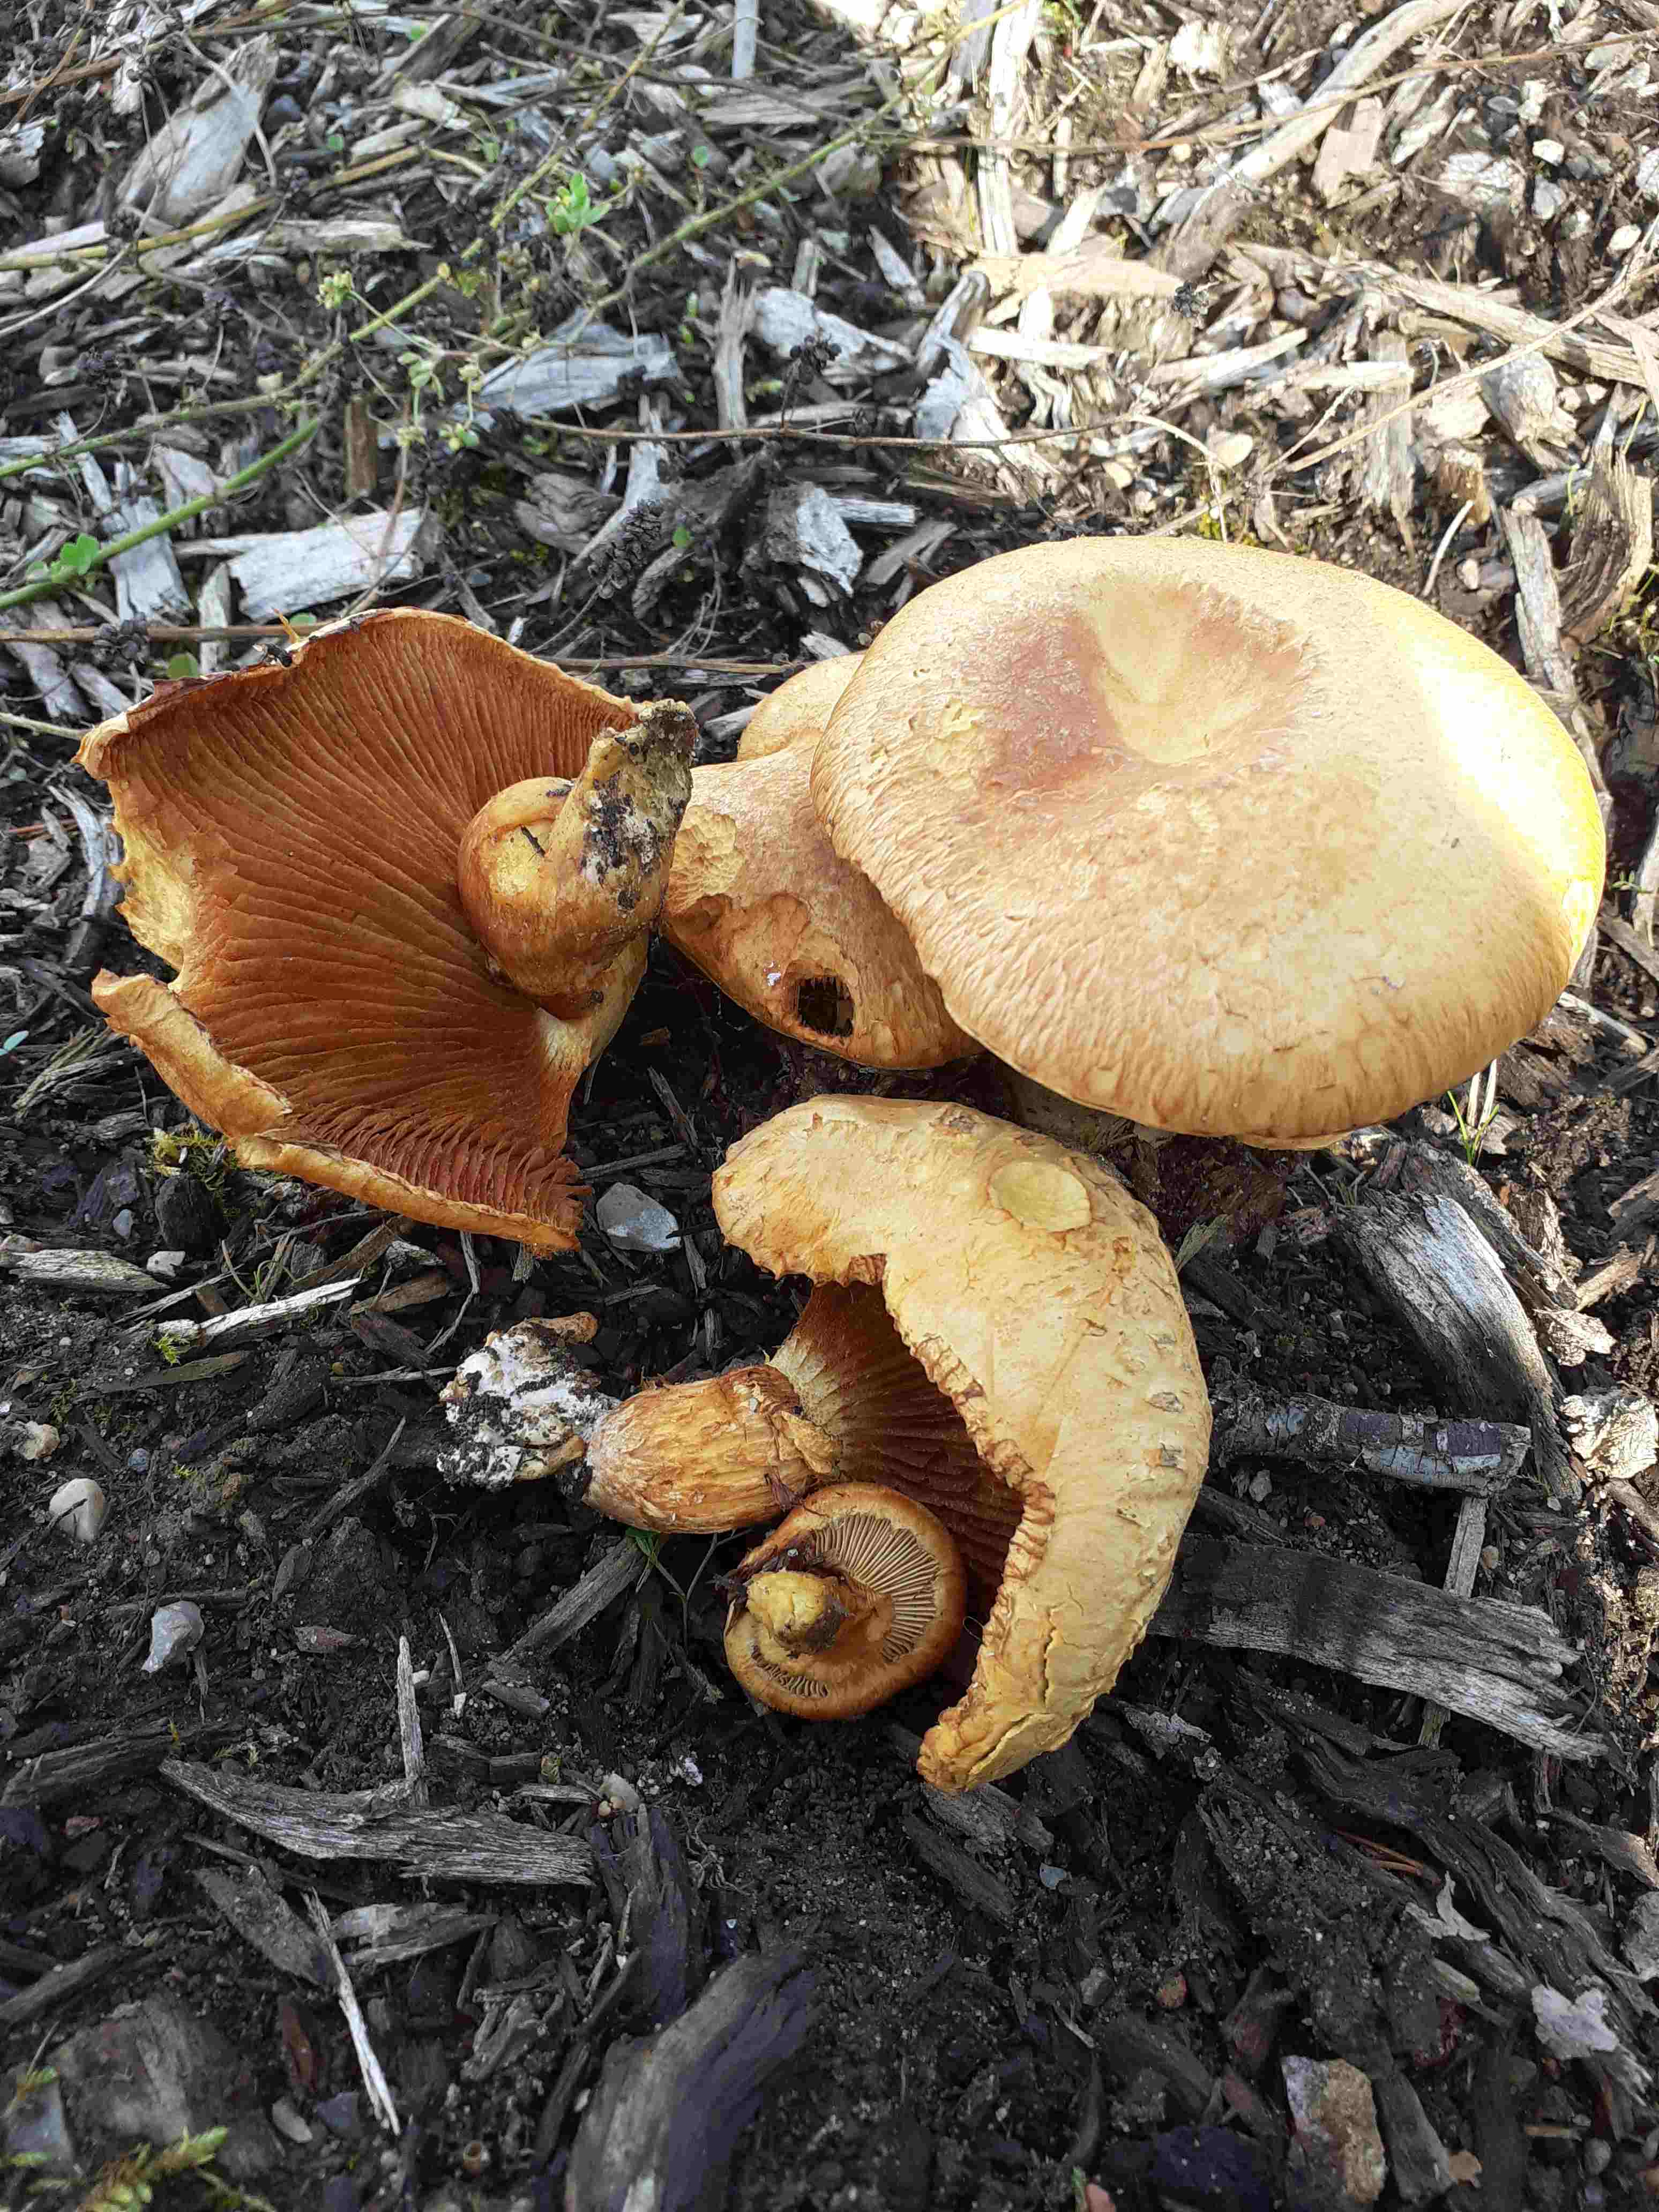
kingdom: Fungi
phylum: Basidiomycota
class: Agaricomycetes
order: Agaricales
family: Hymenogastraceae
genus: Gymnopilus
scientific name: Gymnopilus spectabilis
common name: fibret flammehat
